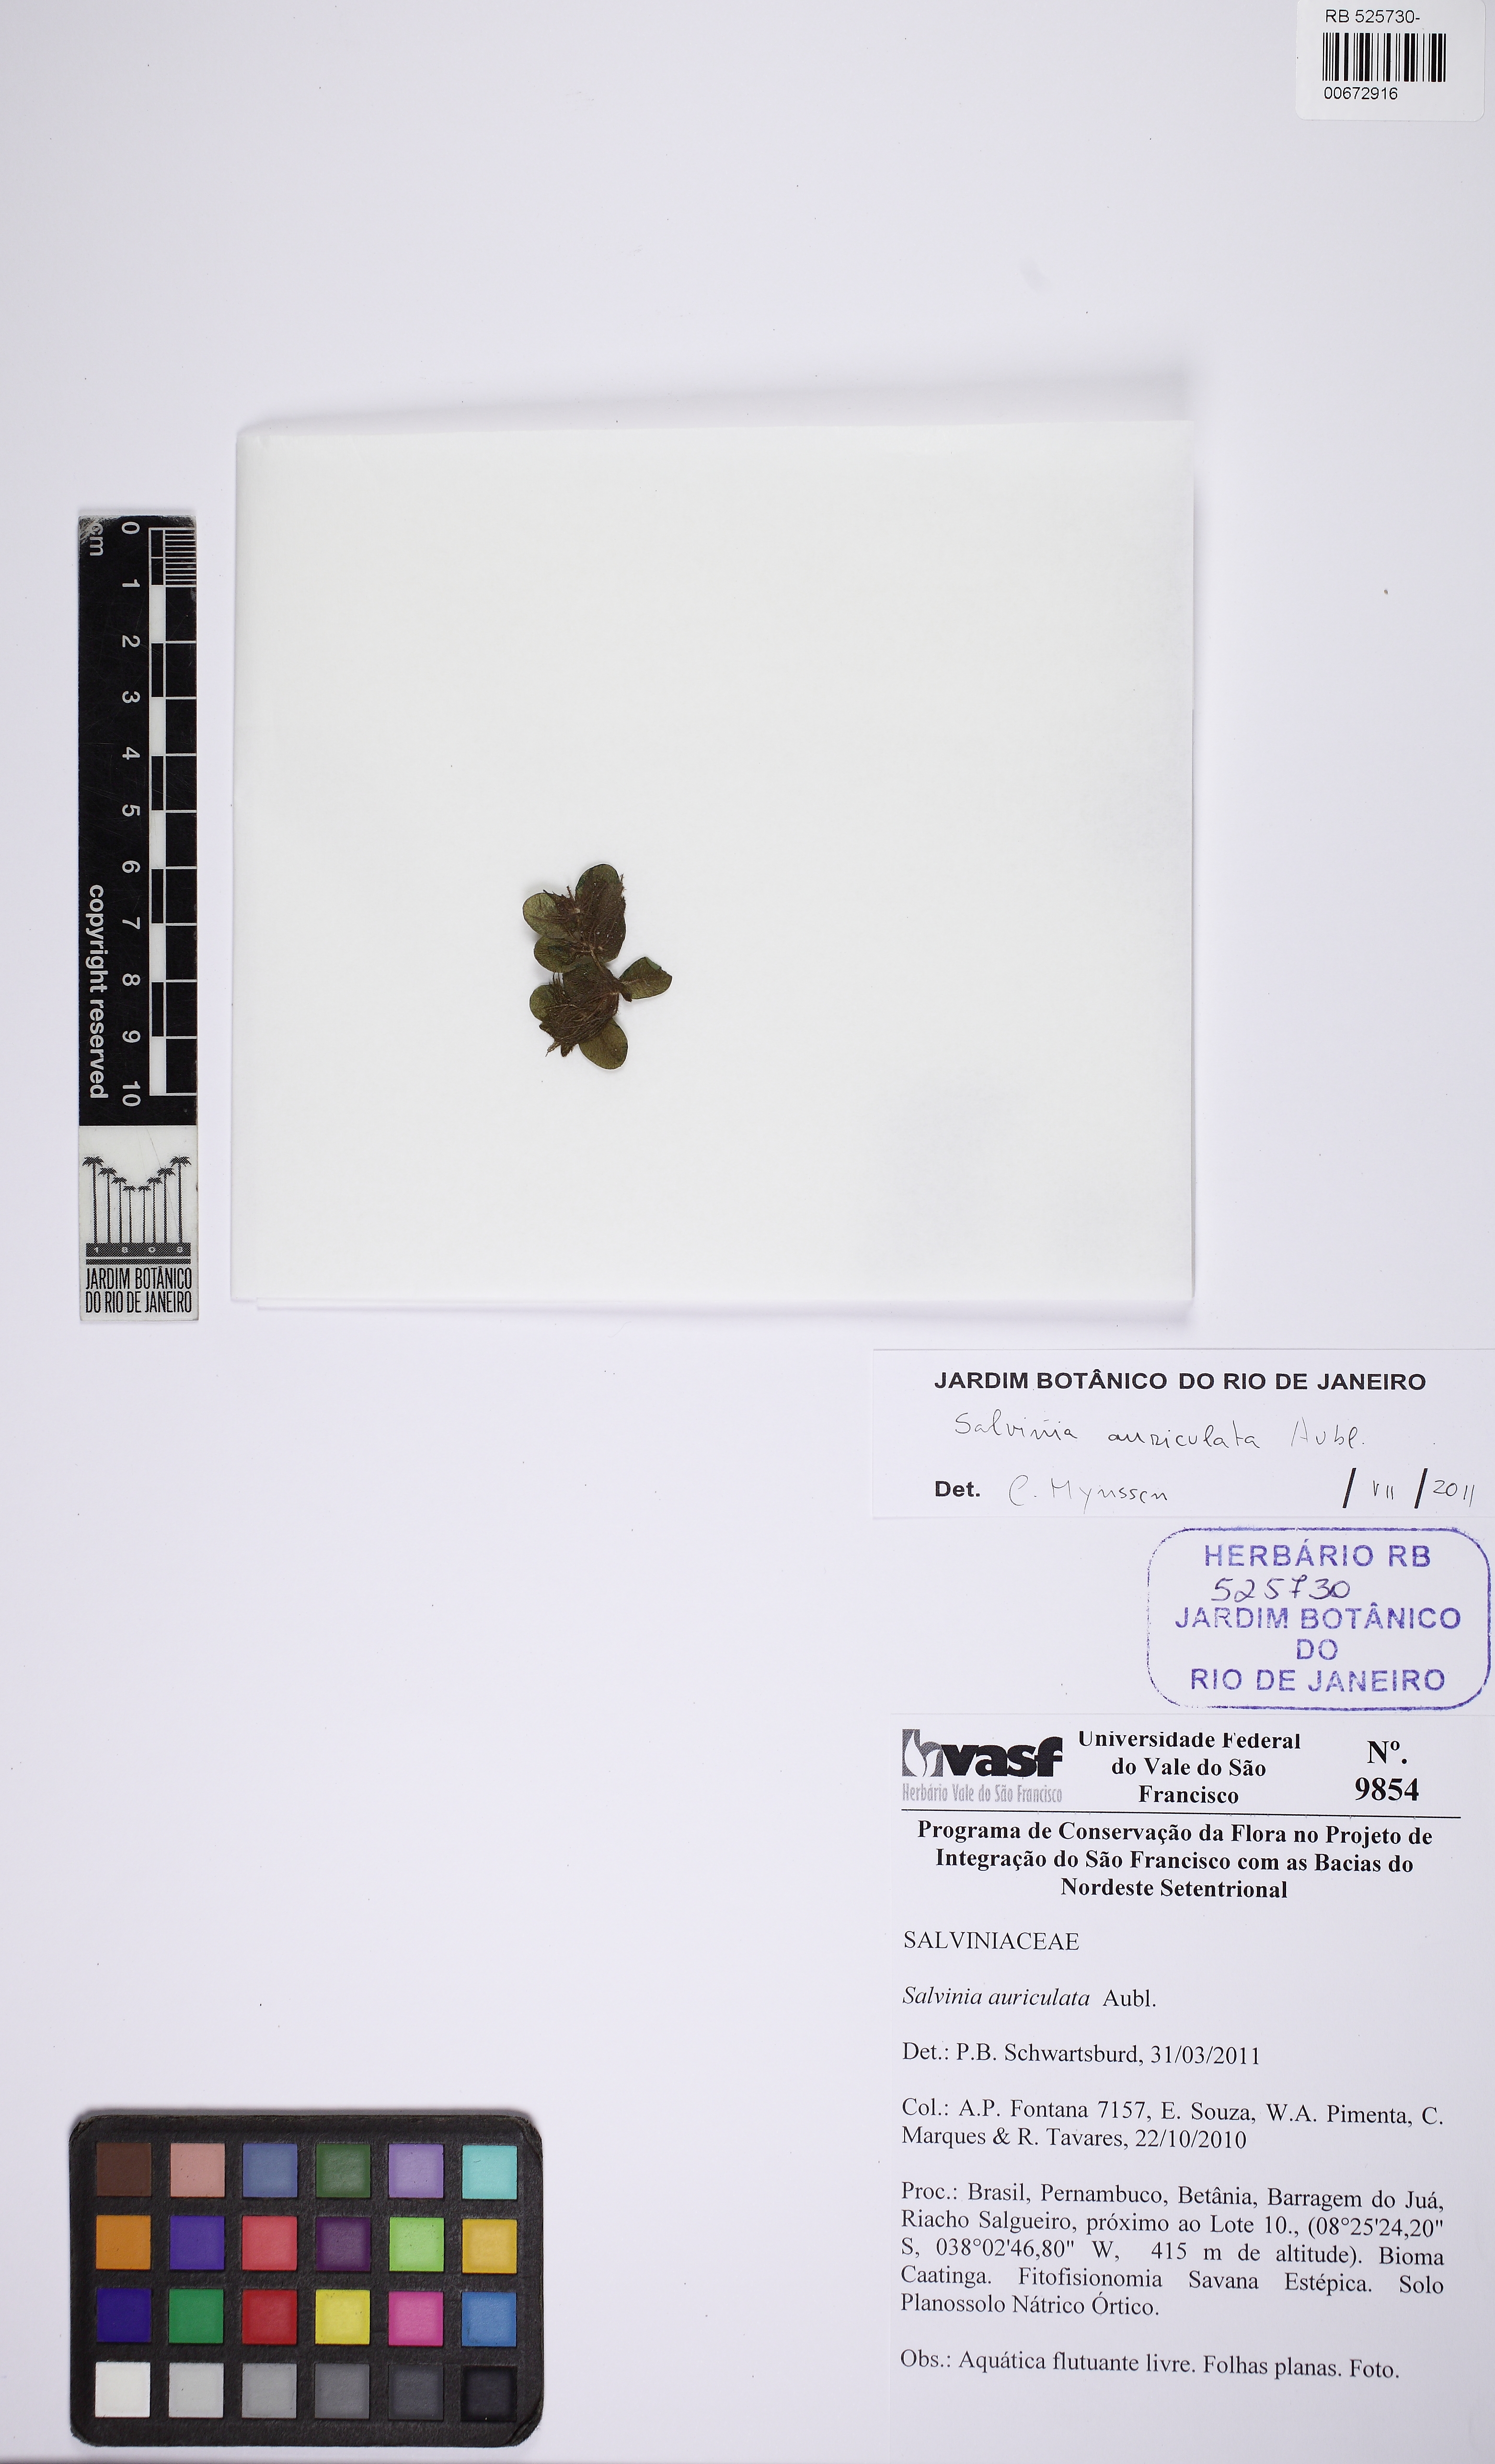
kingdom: Plantae
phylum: Tracheophyta
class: Polypodiopsida
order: Salviniales
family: Salviniaceae
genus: Salvinia
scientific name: Salvinia auriculata
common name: African payal
